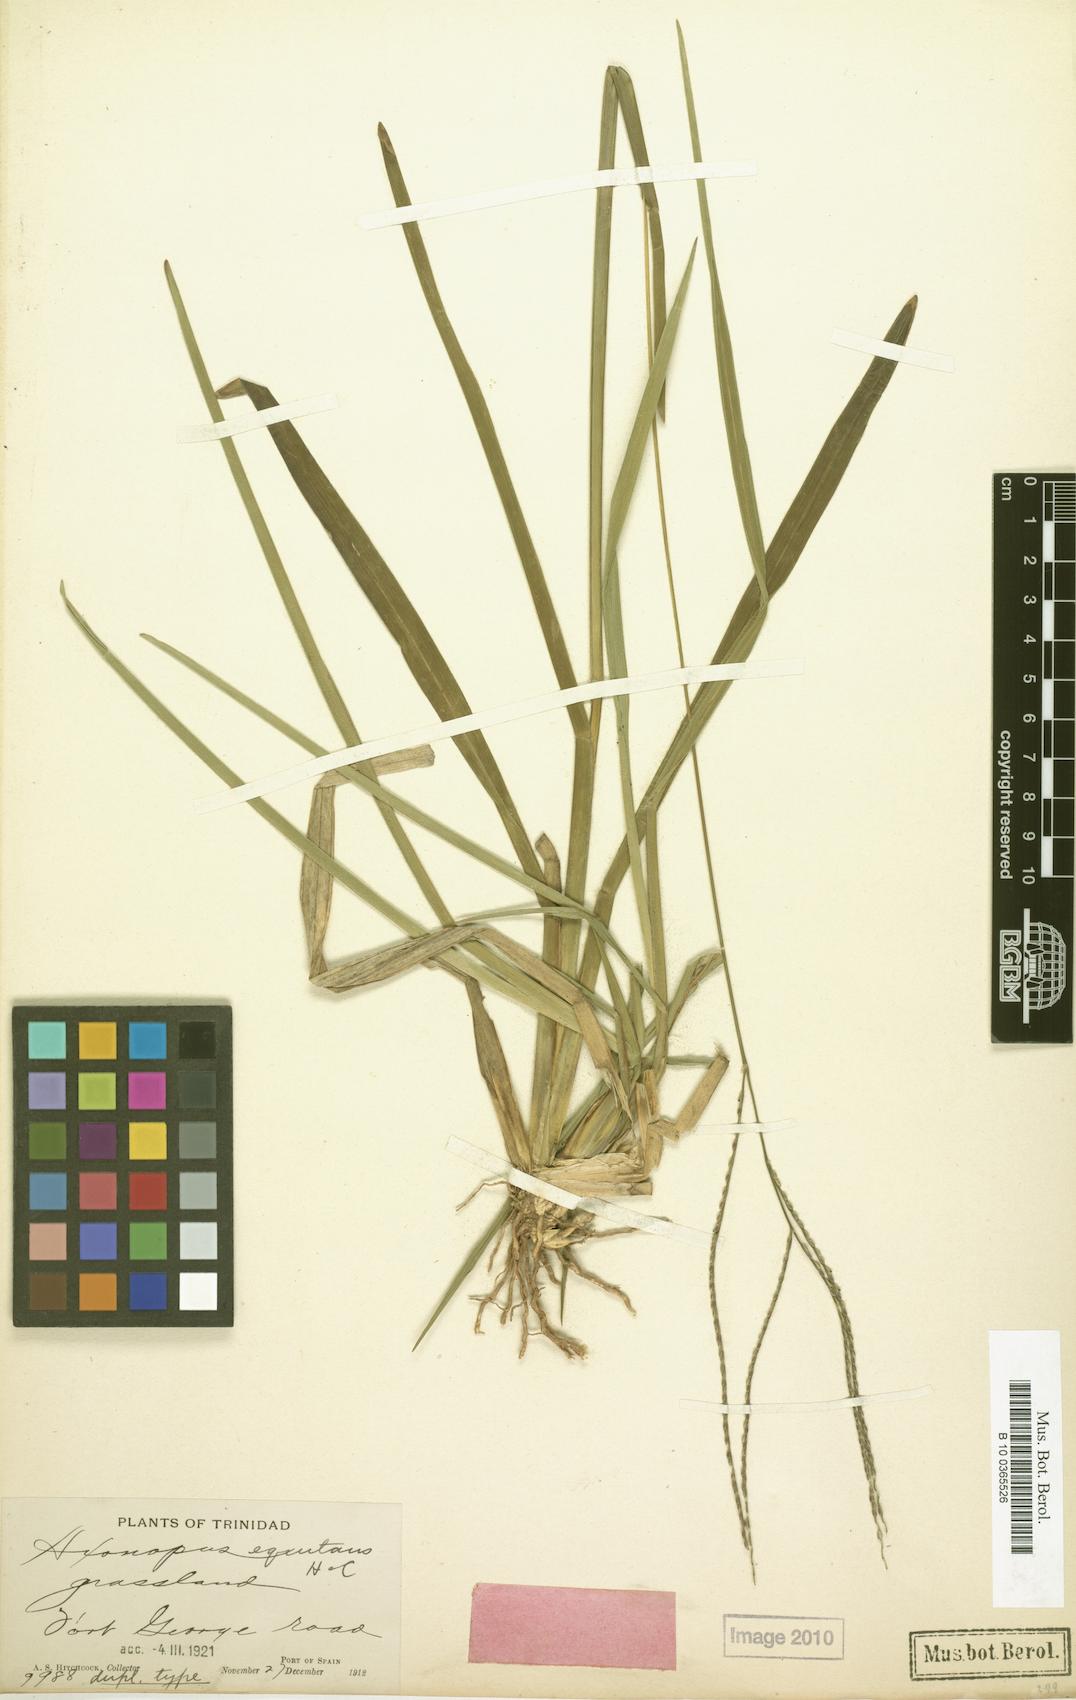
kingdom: Plantae
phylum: Tracheophyta
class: Liliopsida
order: Poales
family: Poaceae
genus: Paspalum
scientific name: Paspalum equitans
